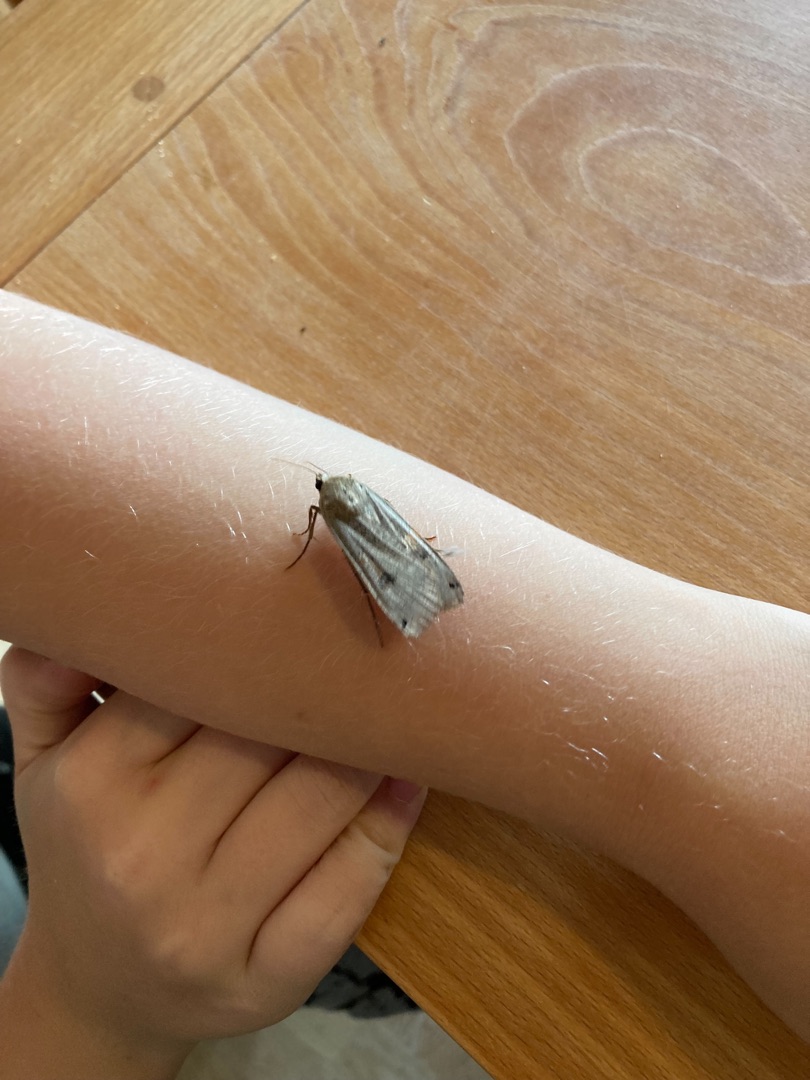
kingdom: Animalia
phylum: Arthropoda
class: Insecta
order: Lepidoptera
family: Noctuidae
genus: Noctua
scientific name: Noctua pronuba
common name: Stor smutugle
